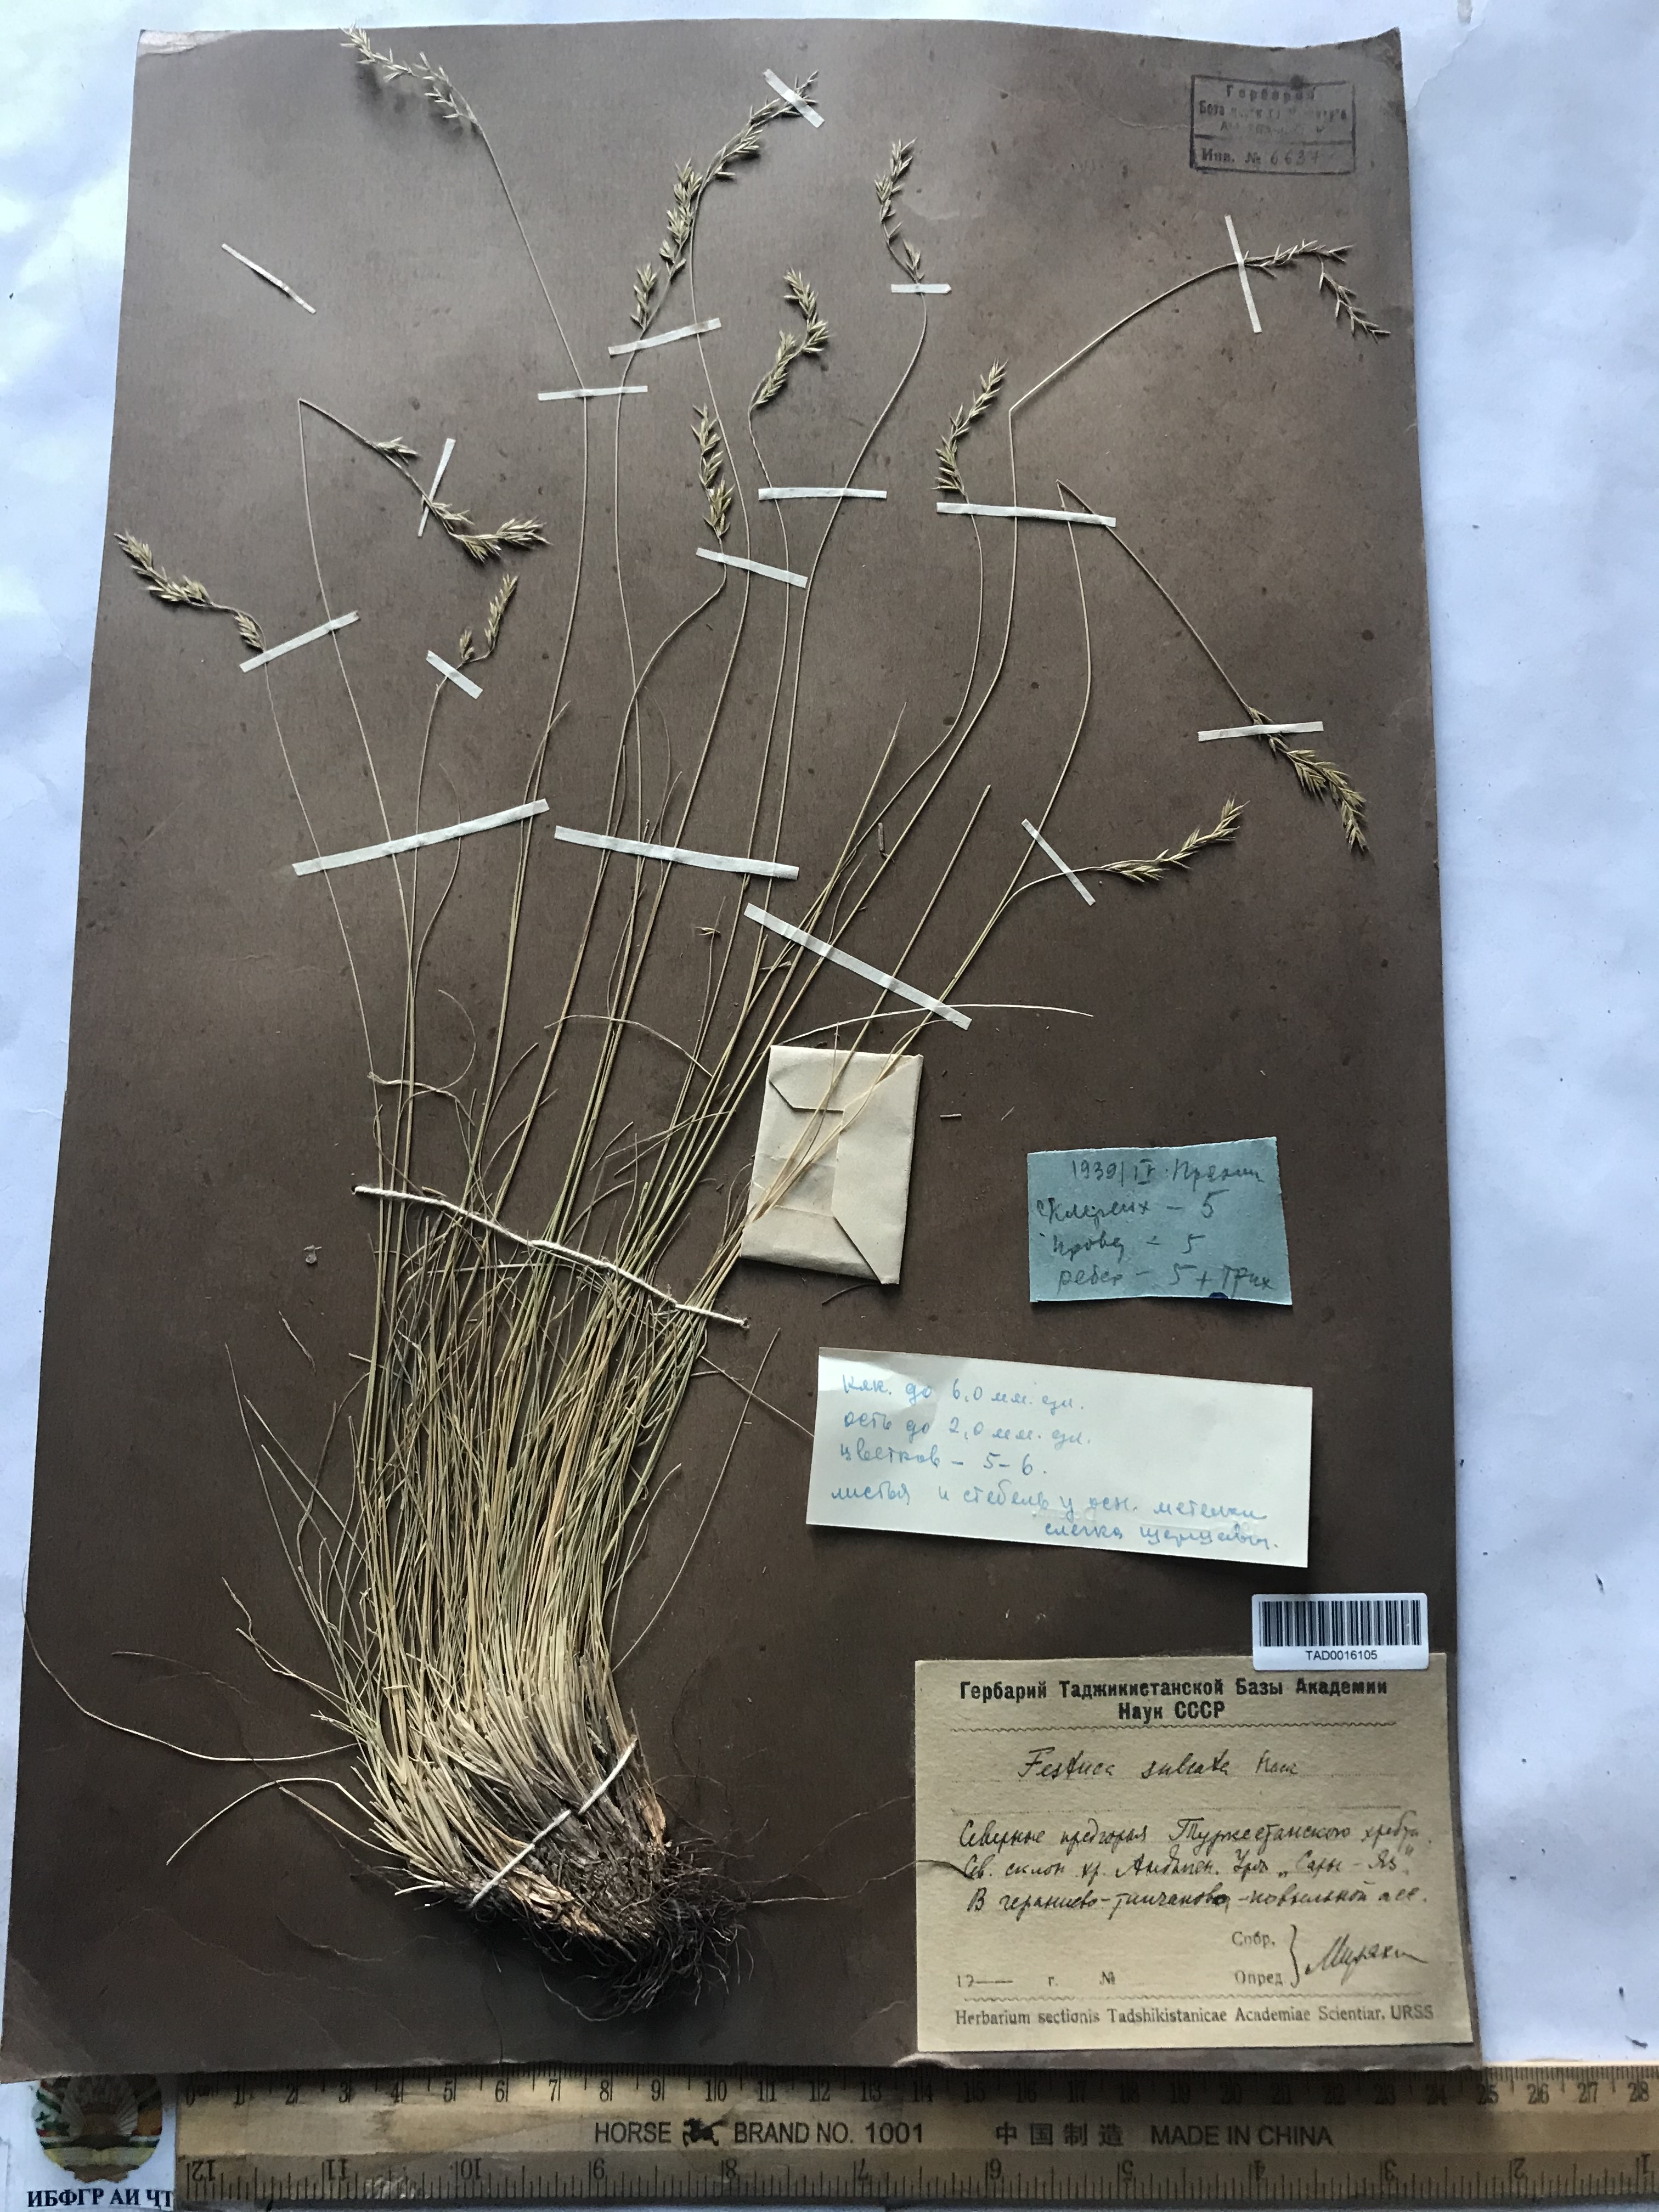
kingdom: Plantae
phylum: Tracheophyta
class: Liliopsida
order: Poales
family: Poaceae
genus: Festuca
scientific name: Festuca sulcata
